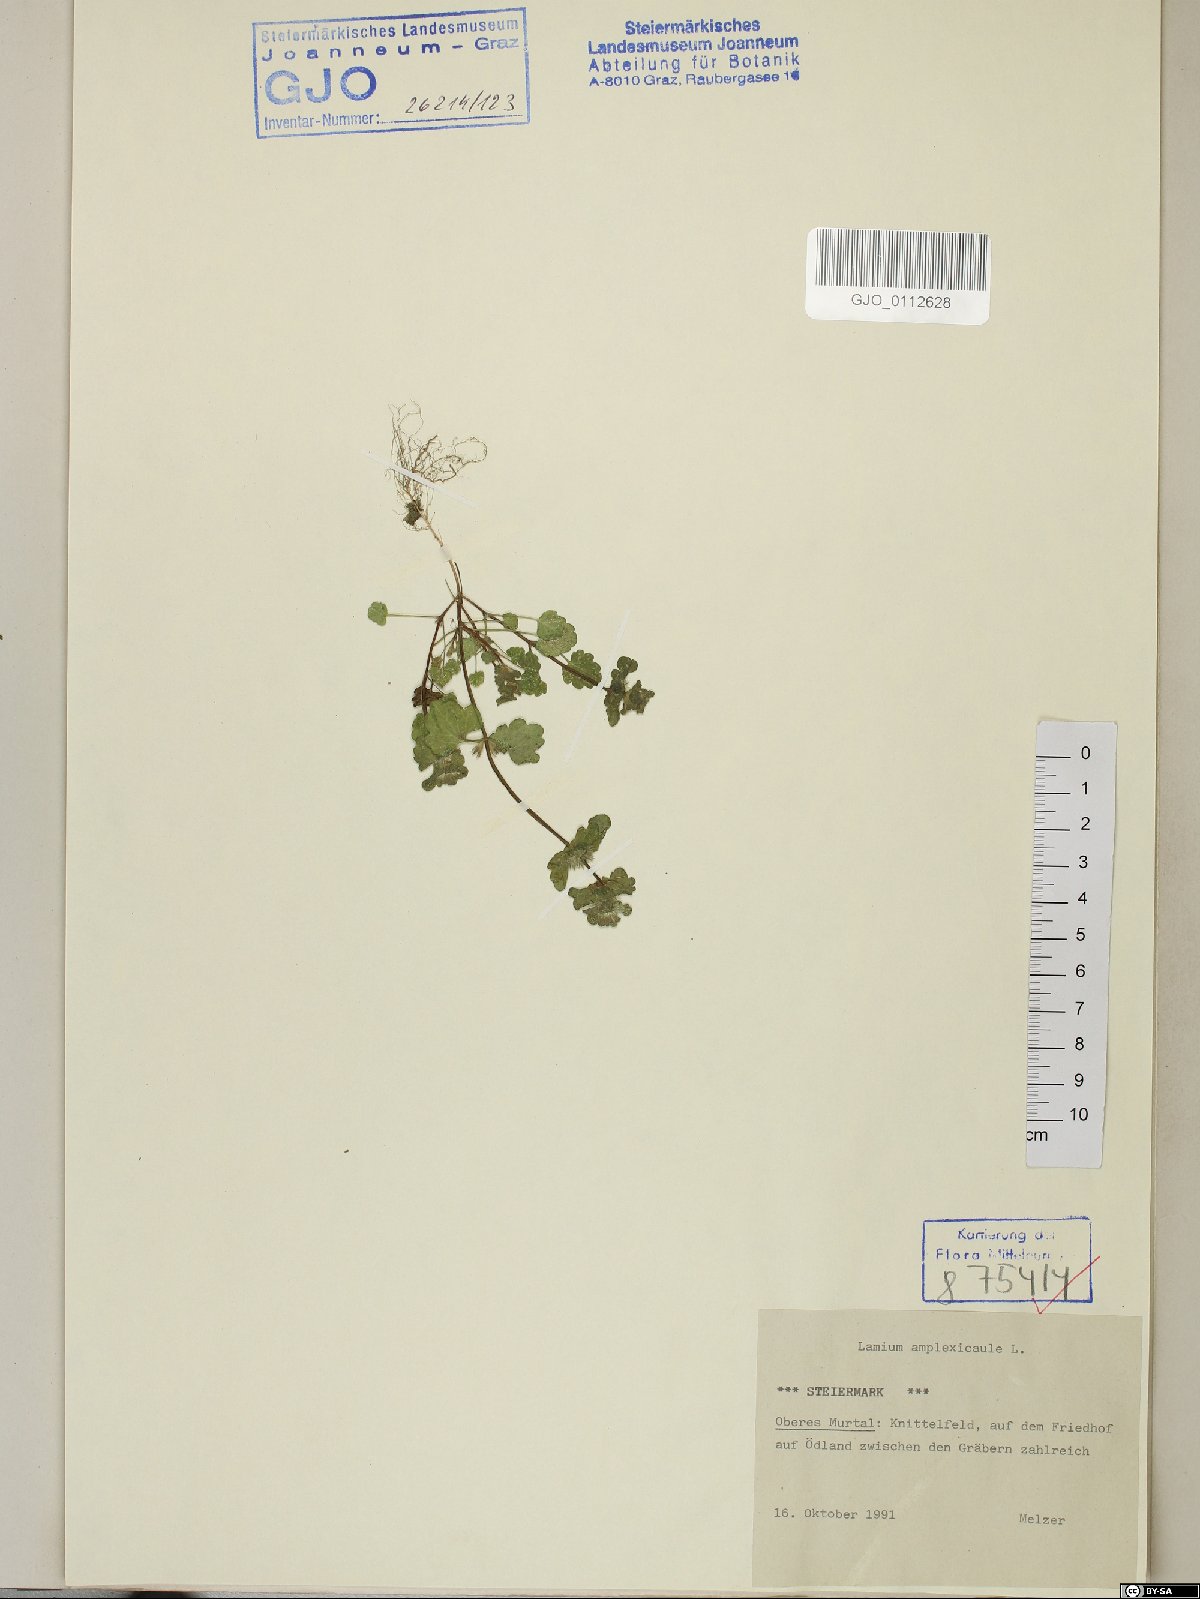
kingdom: Plantae
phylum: Tracheophyta
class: Magnoliopsida
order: Lamiales
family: Lamiaceae
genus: Lamium
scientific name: Lamium amplexicaule
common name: Henbit dead-nettle
